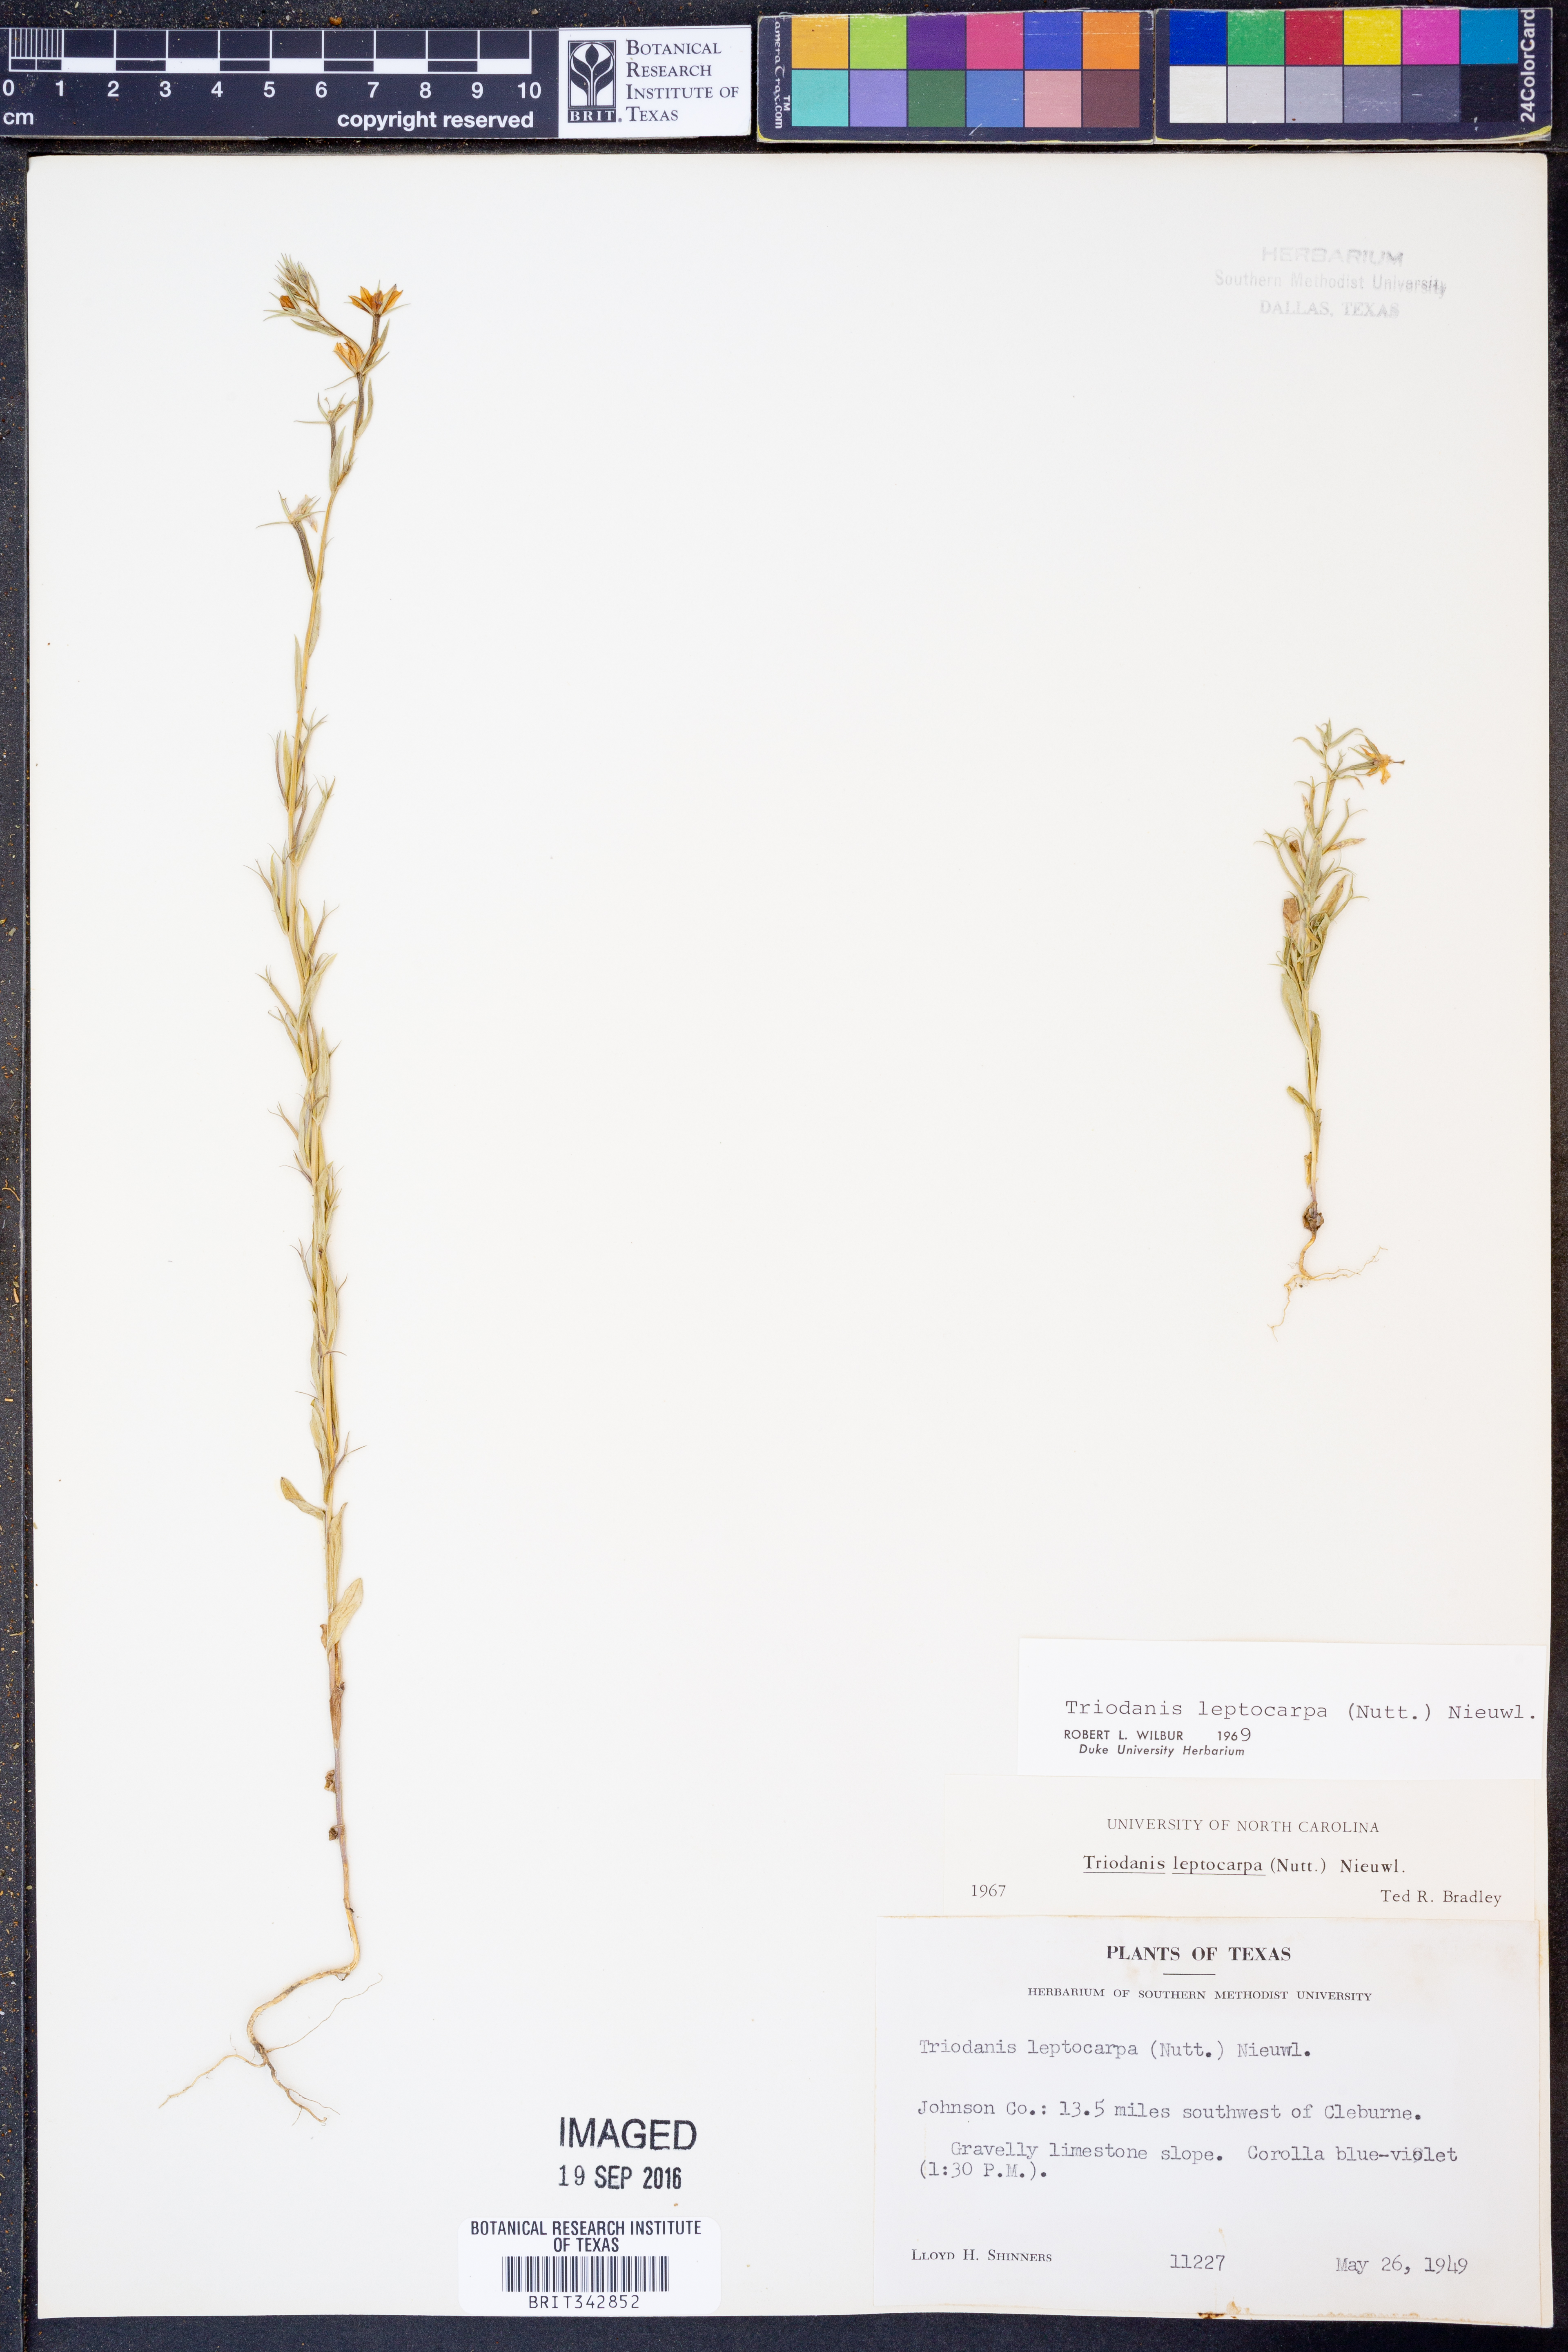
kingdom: Plantae
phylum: Tracheophyta
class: Magnoliopsida
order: Asterales
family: Campanulaceae
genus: Triodanis
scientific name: Triodanis leptocarpa
